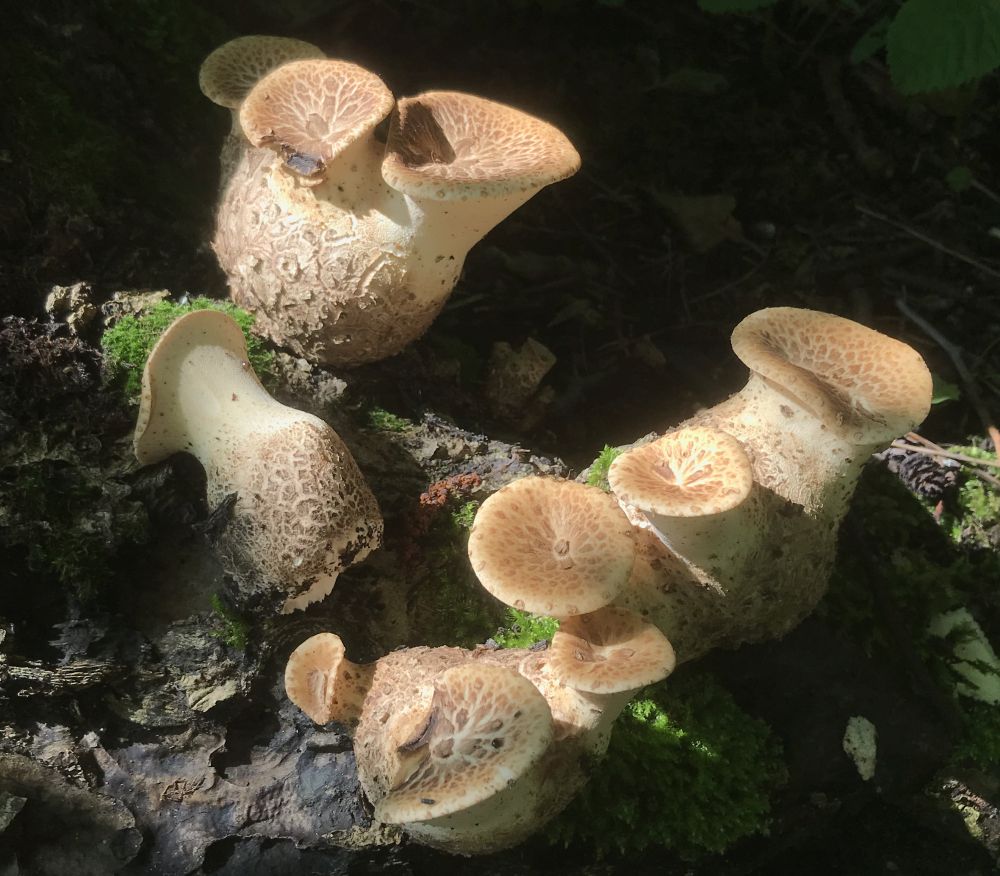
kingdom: Fungi
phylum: Basidiomycota
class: Agaricomycetes
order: Polyporales
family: Polyporaceae
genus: Cerioporus
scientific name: Cerioporus squamosus
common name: skællet stilkporesvamp
